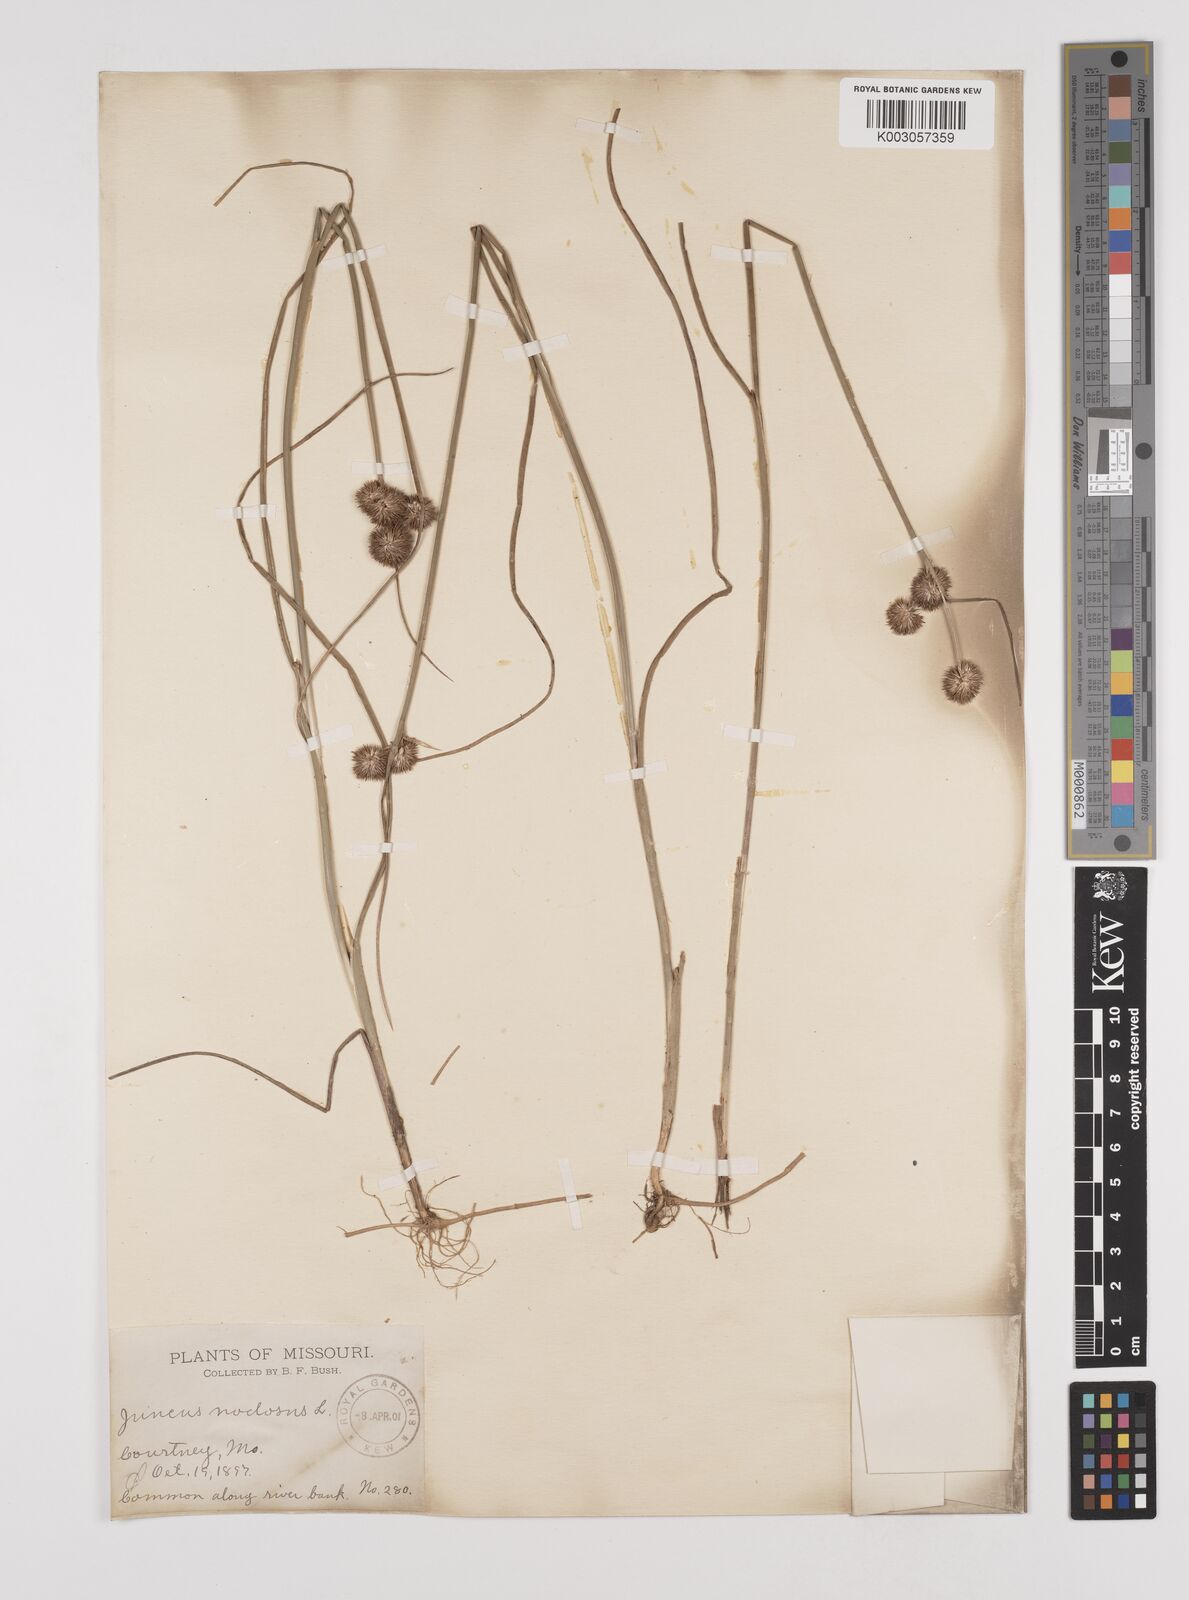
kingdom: Plantae
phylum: Tracheophyta
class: Liliopsida
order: Poales
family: Juncaceae
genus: Juncus
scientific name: Juncus nodosus
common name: Knotted rush
